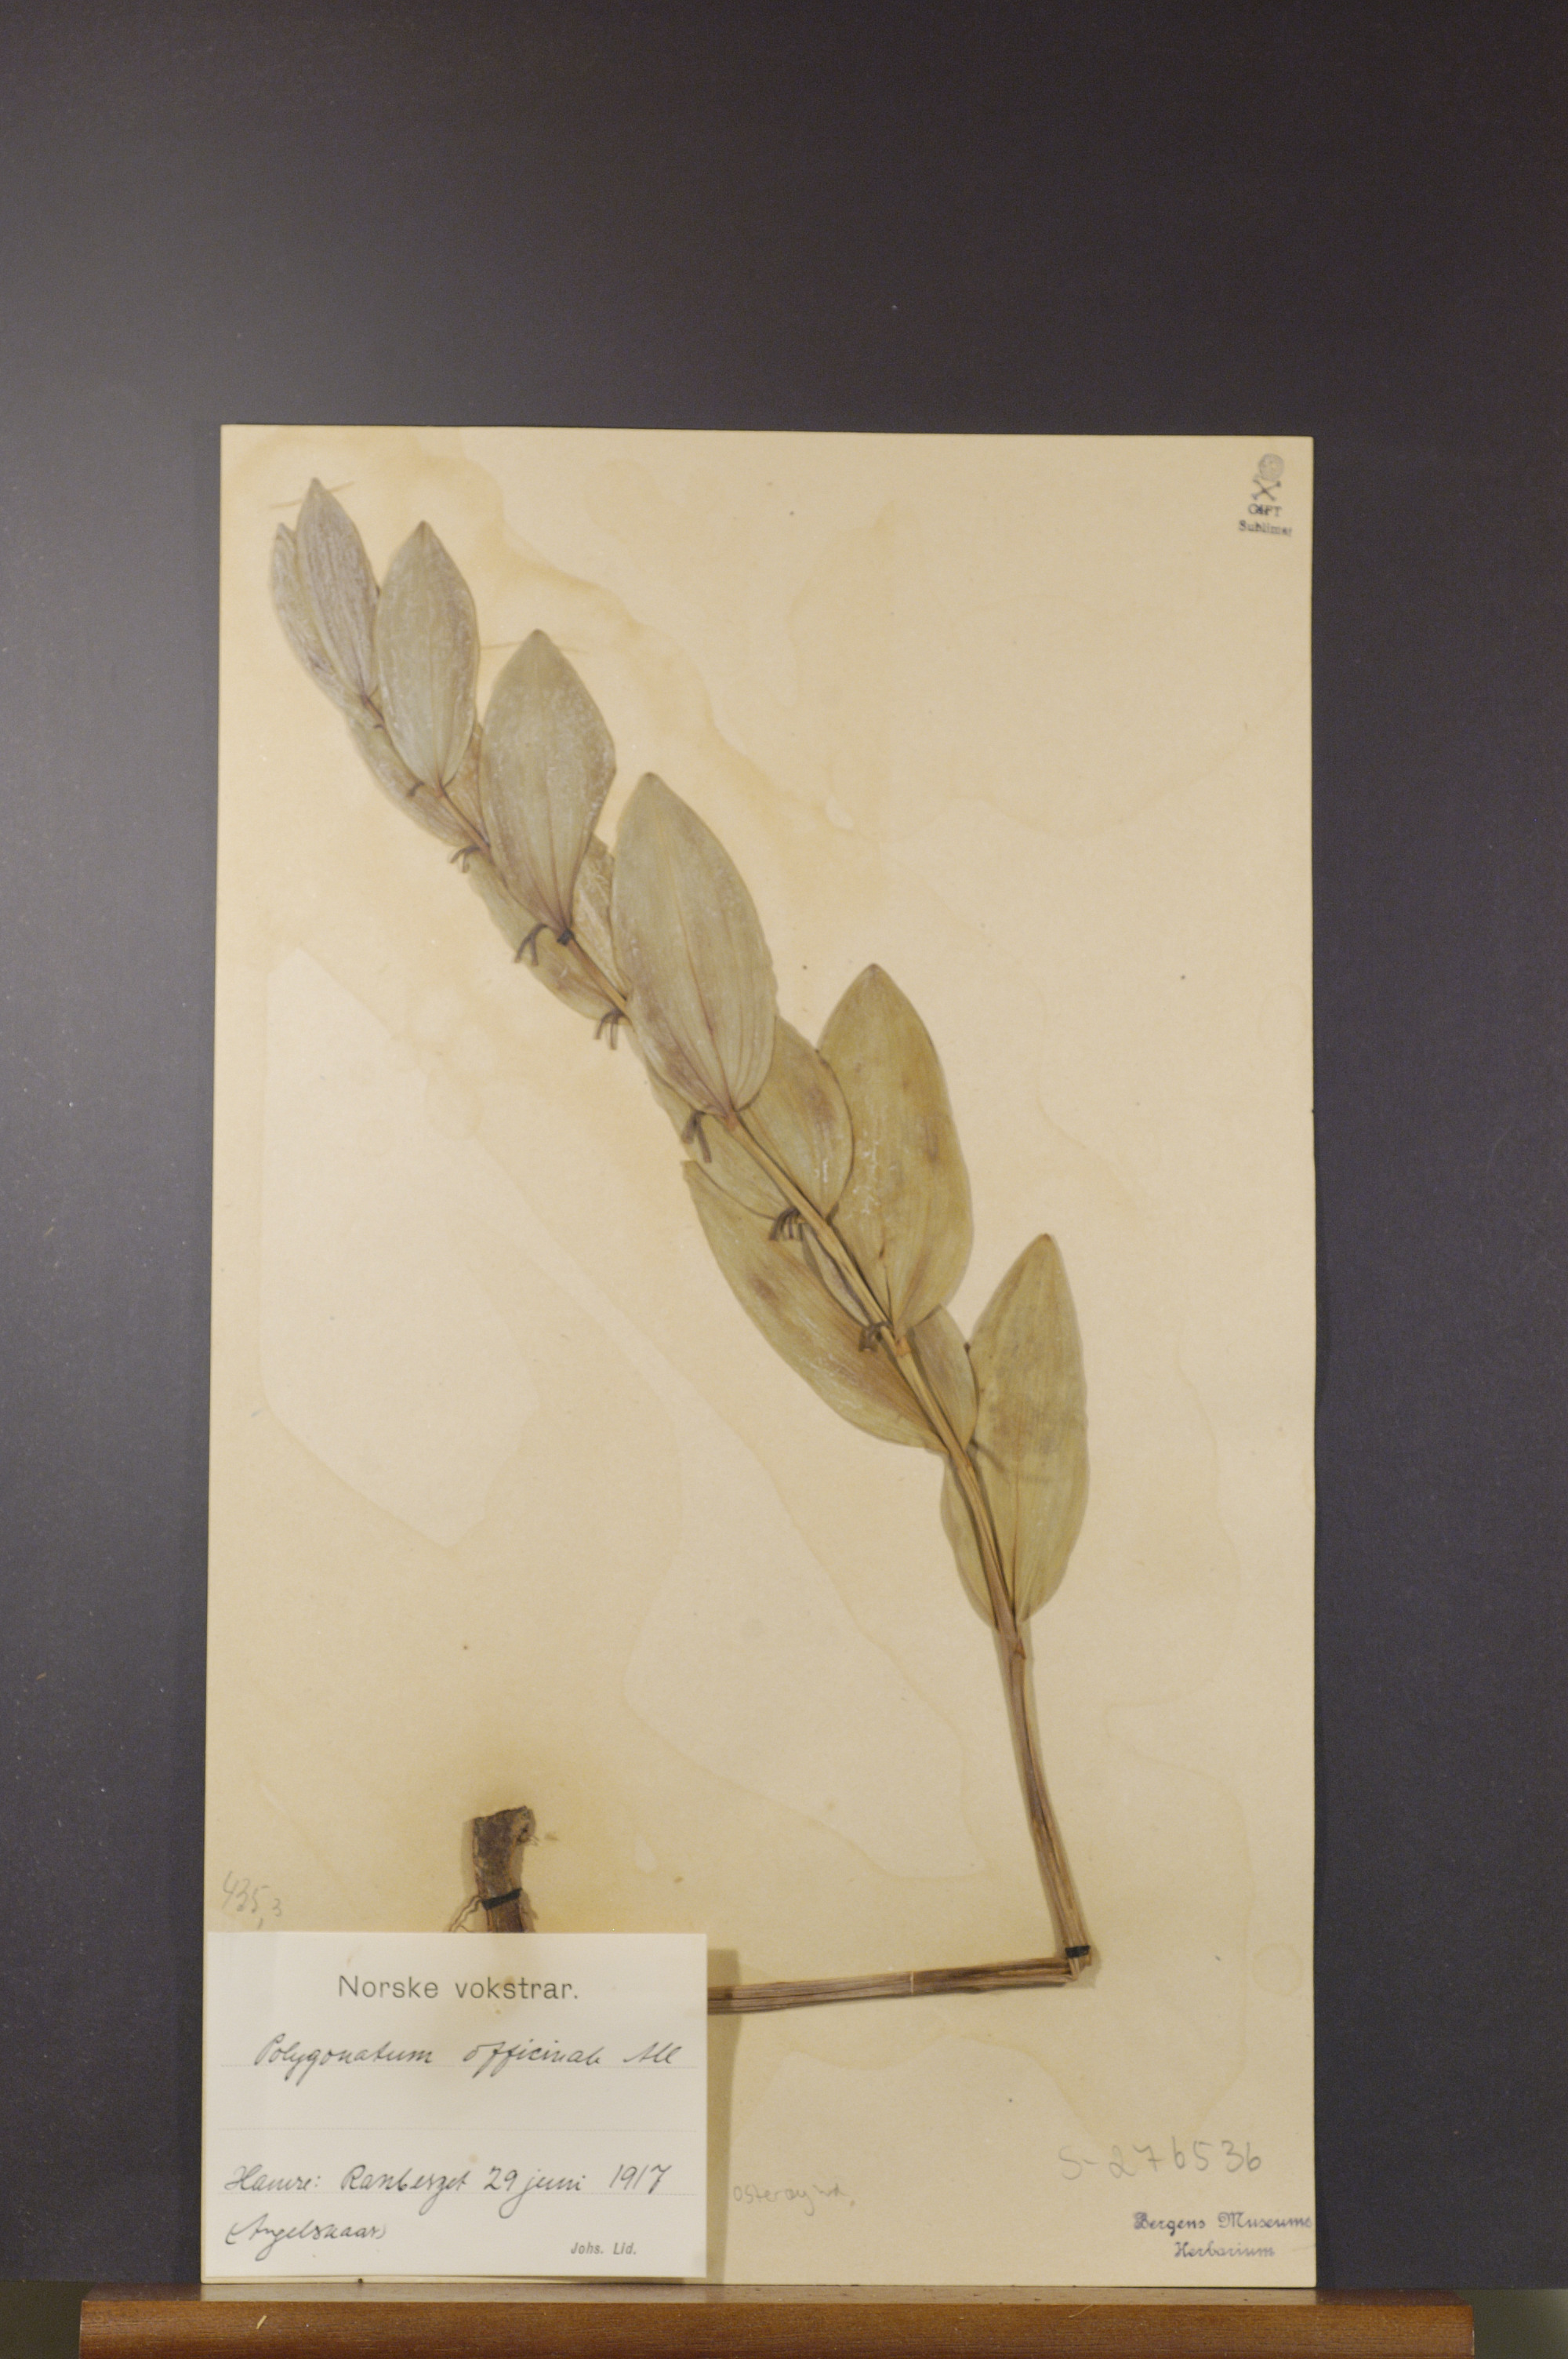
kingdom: Plantae
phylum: Tracheophyta
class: Liliopsida
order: Asparagales
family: Asparagaceae
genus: Polygonatum
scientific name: Polygonatum odoratum
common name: Angular solomon's-seal
